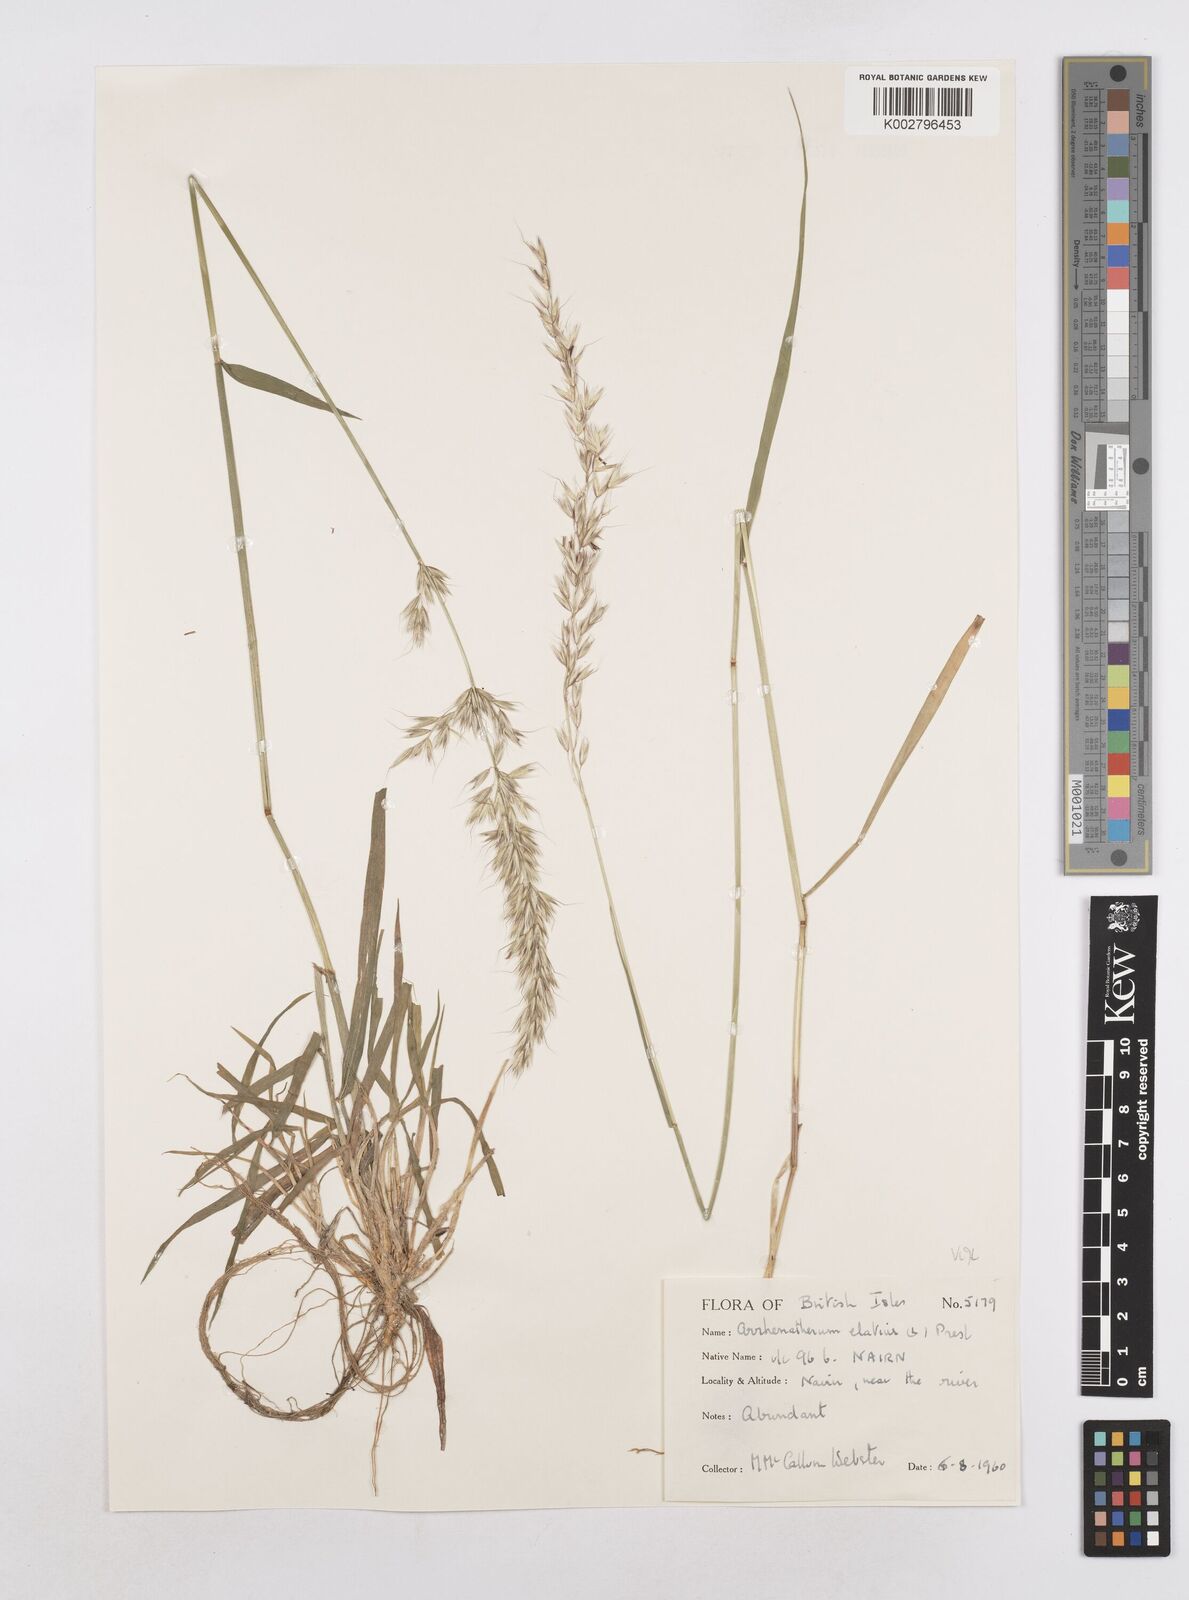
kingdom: Plantae
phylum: Tracheophyta
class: Liliopsida
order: Poales
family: Poaceae
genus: Arrhenatherum
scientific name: Arrhenatherum elatius
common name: Tall oatgrass
